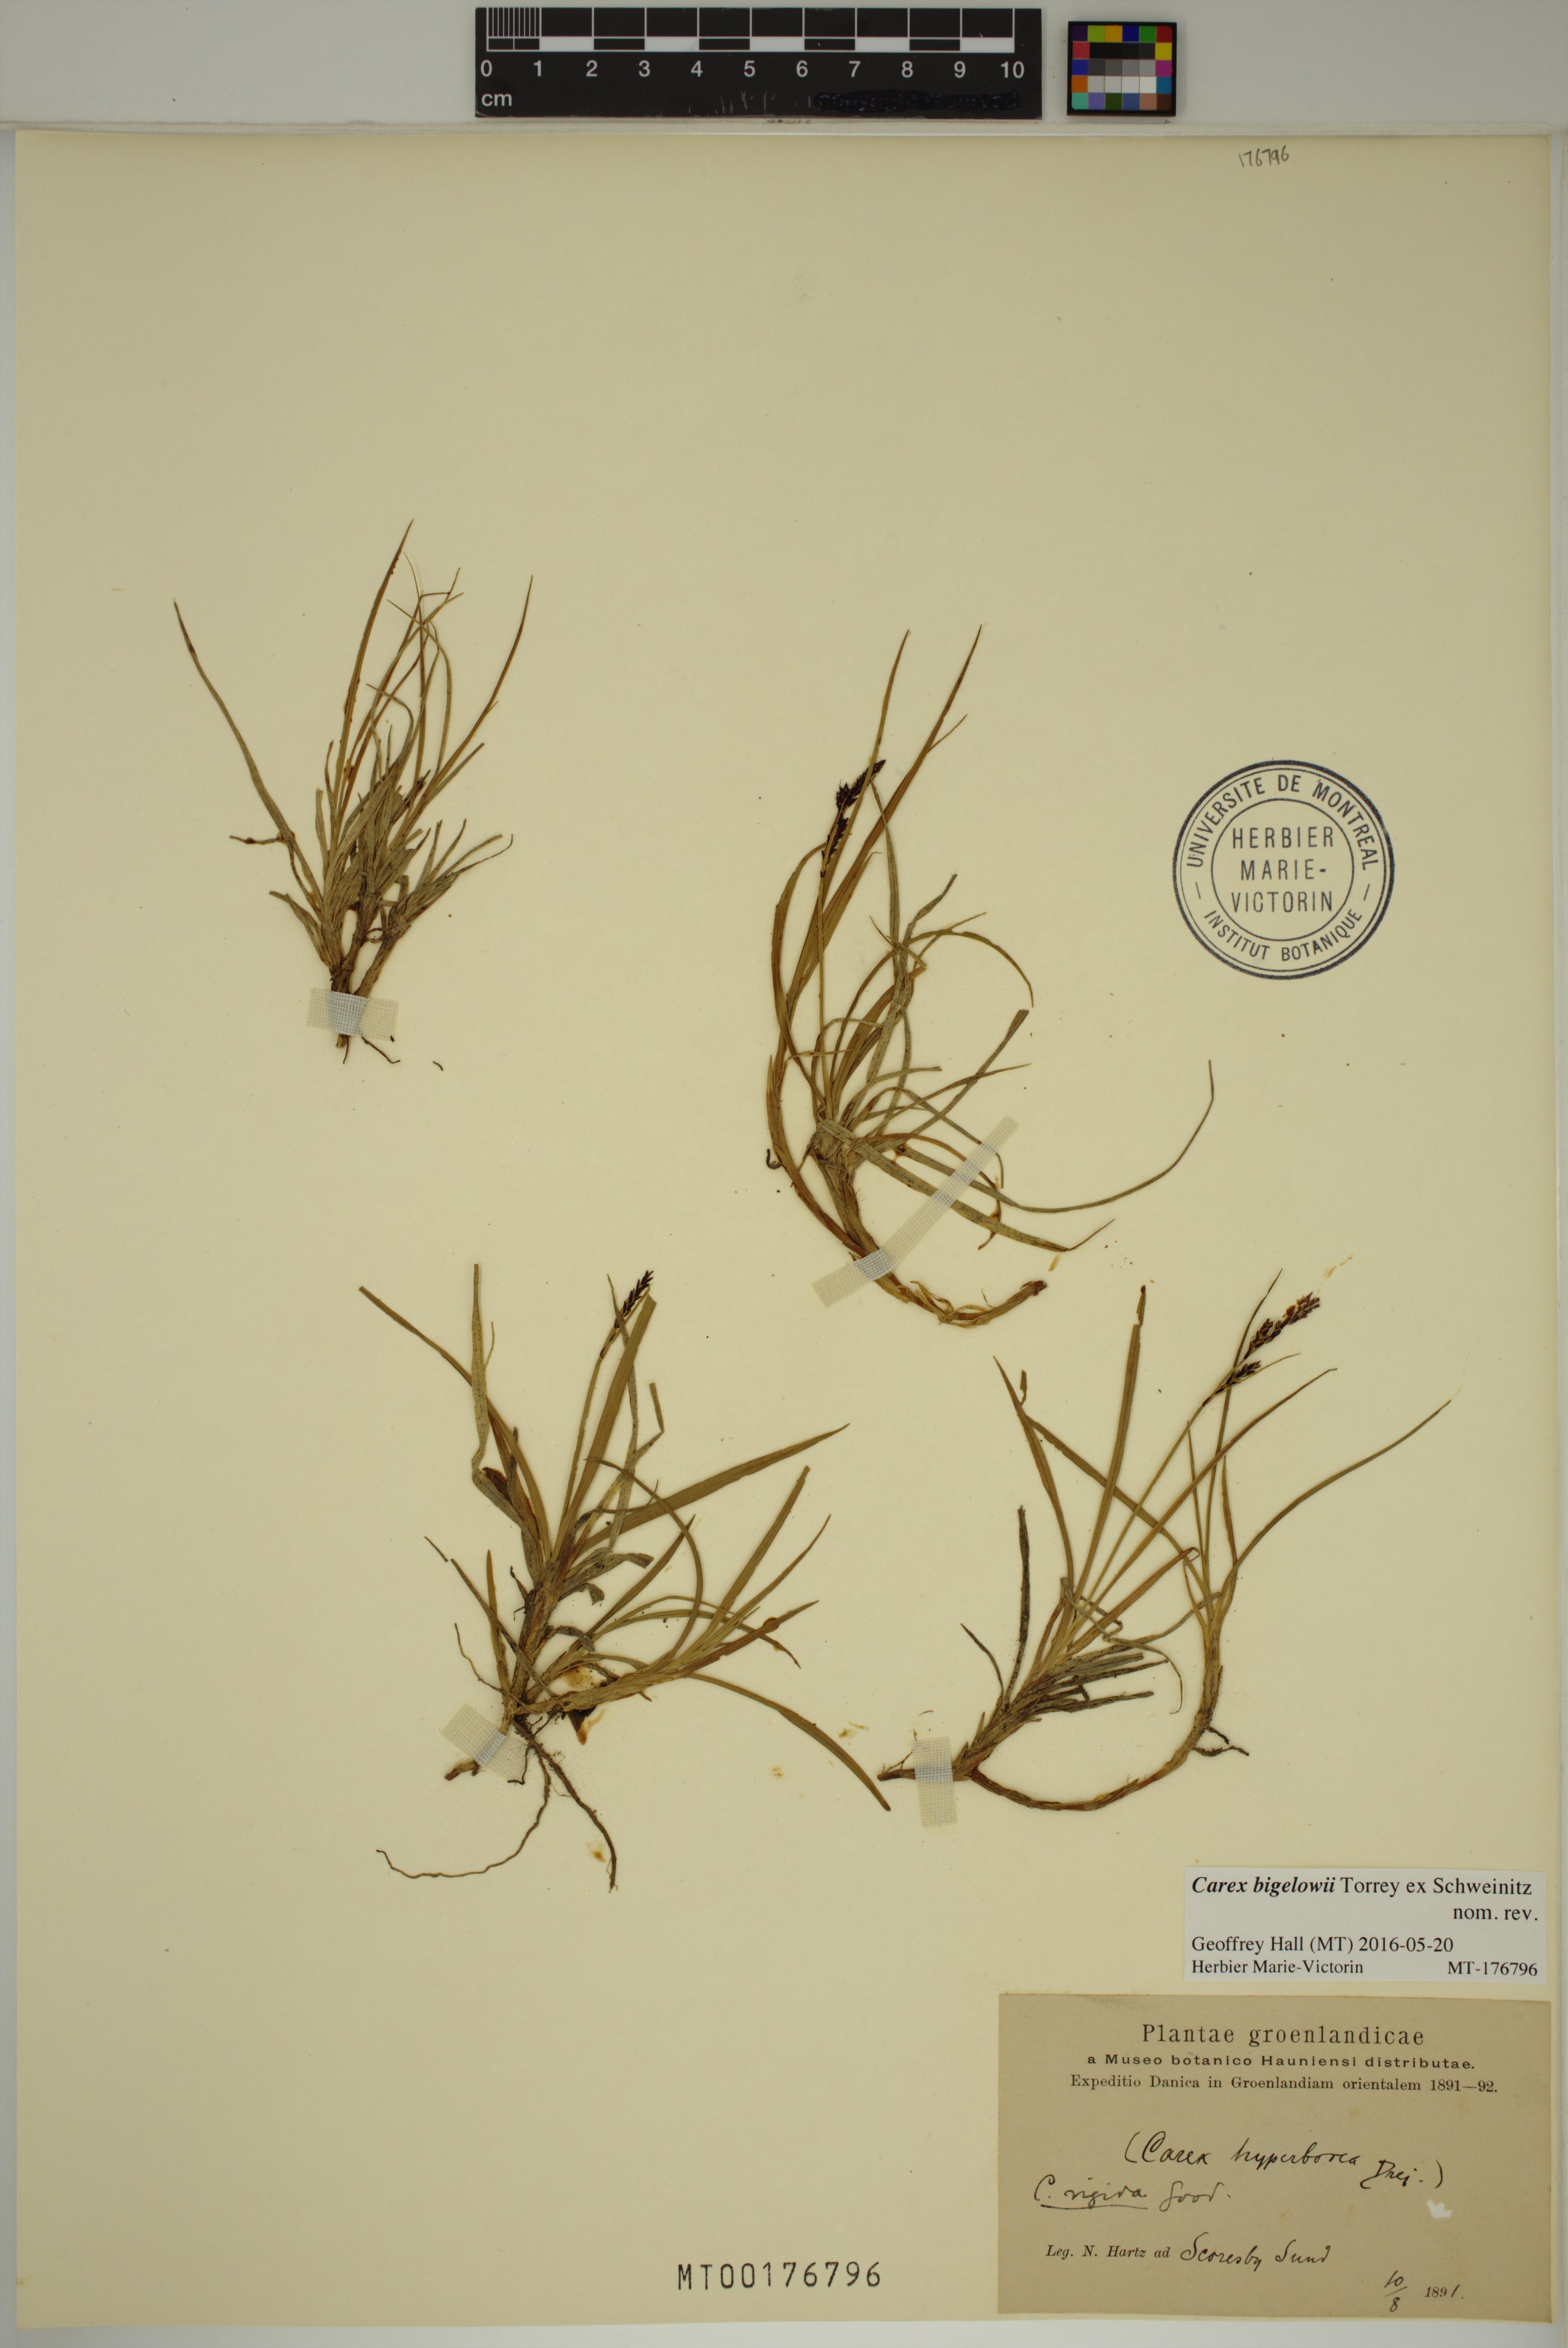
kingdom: Plantae
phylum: Tracheophyta
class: Liliopsida
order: Poales
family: Cyperaceae
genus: Carex
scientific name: Carex bigelowii
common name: Stiff sedge
